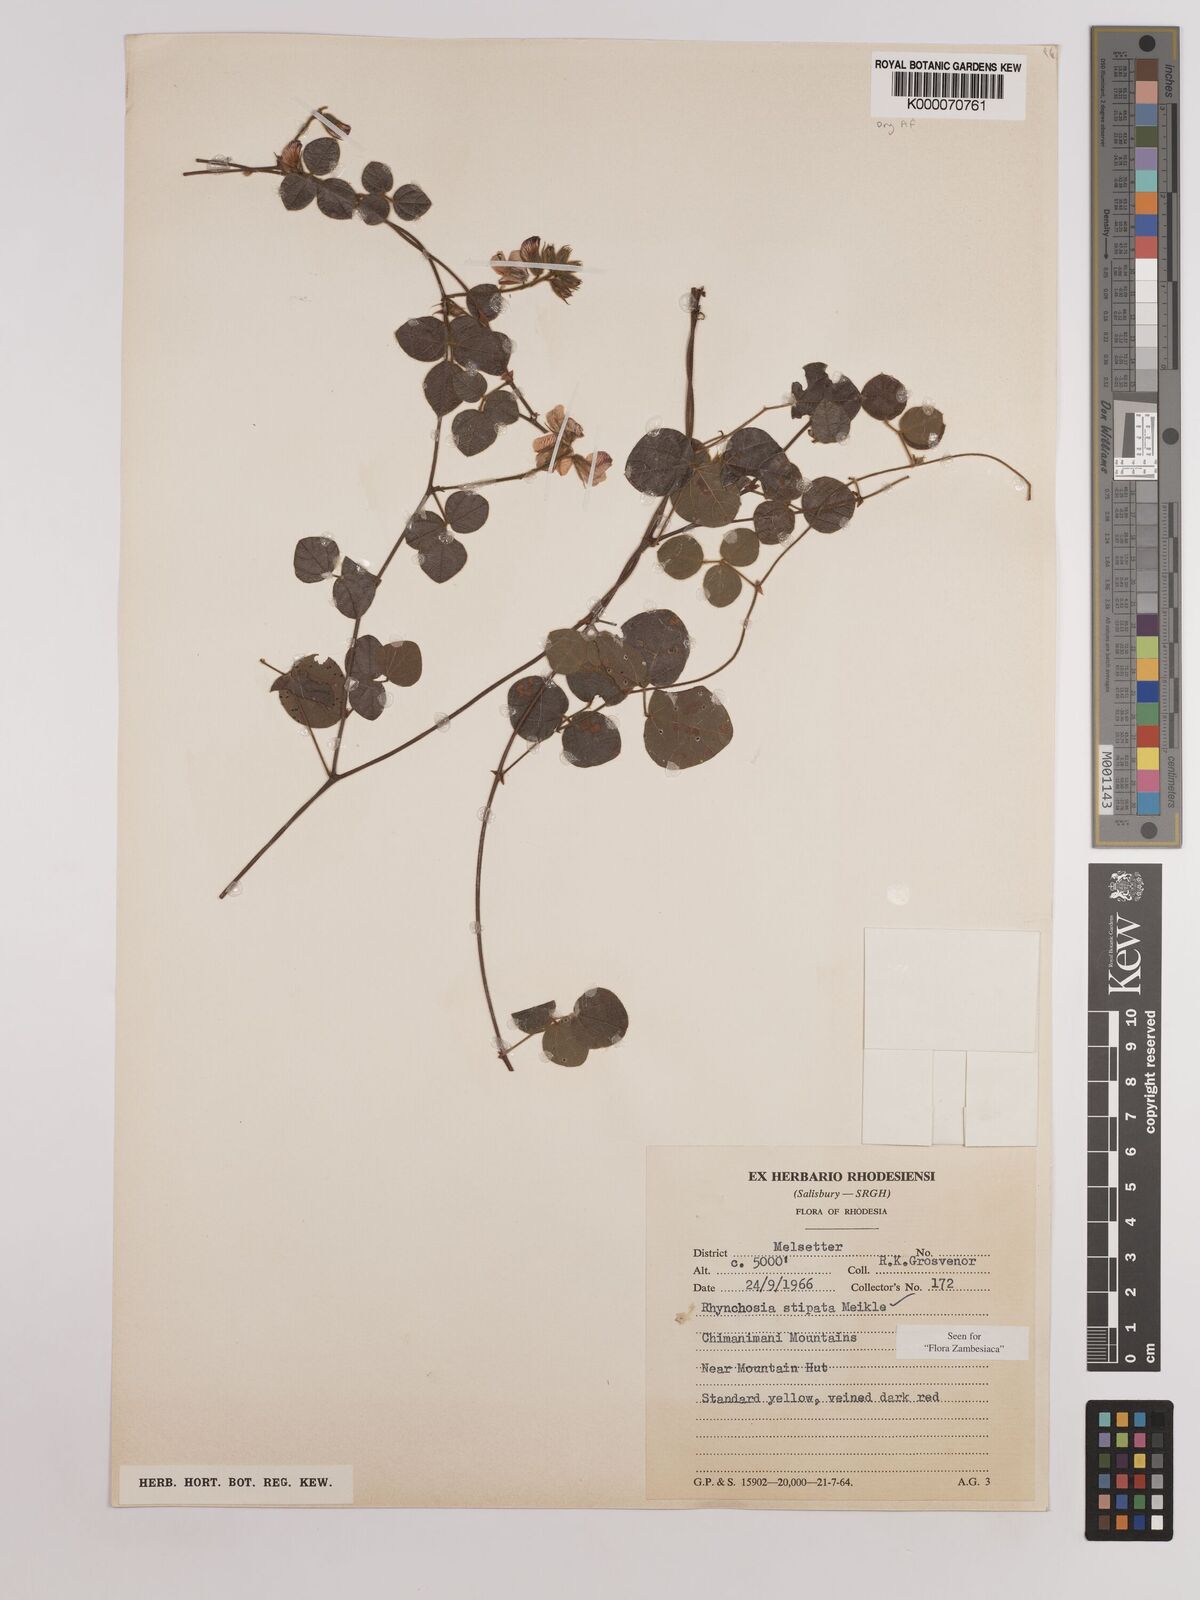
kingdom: Plantae
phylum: Tracheophyta
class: Magnoliopsida
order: Fabales
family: Fabaceae
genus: Rhynchosia
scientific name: Rhynchosia stipata
